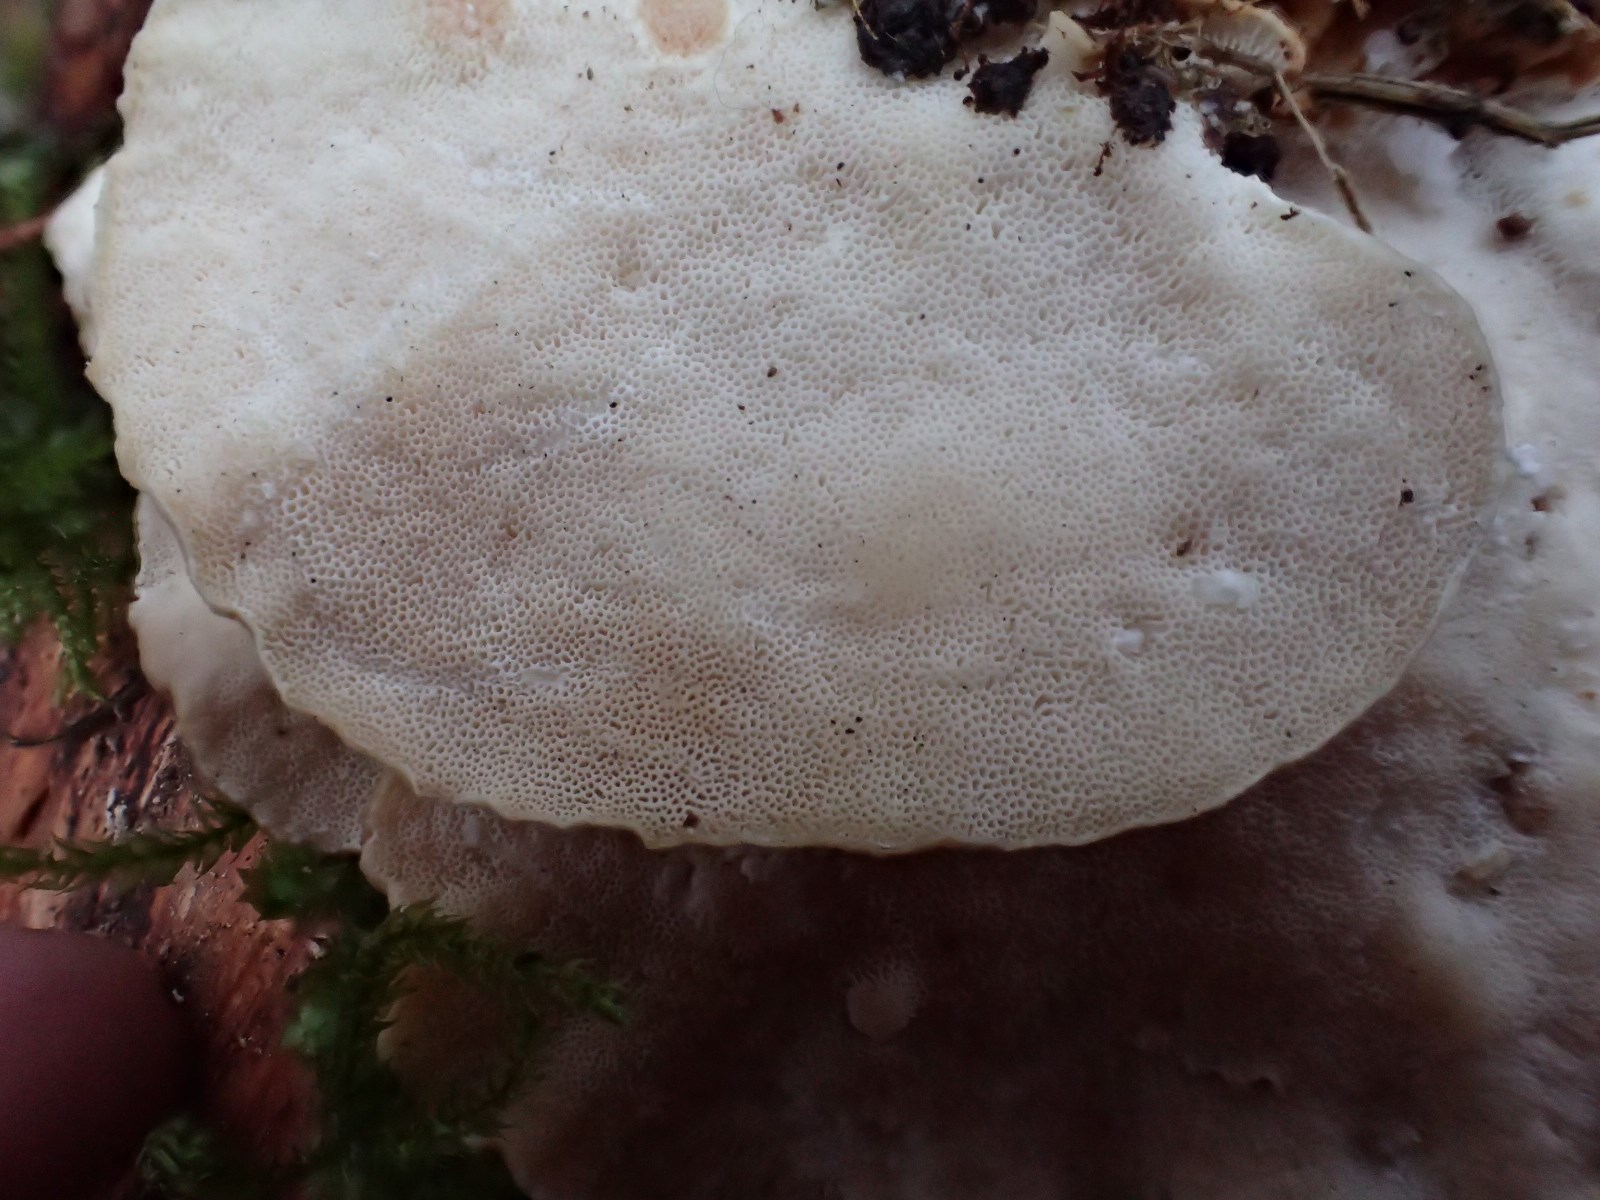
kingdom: Fungi
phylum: Basidiomycota
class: Agaricomycetes
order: Polyporales
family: Polyporaceae
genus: Trametes
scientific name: Trametes ochracea
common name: bæltet læderporesvamp
